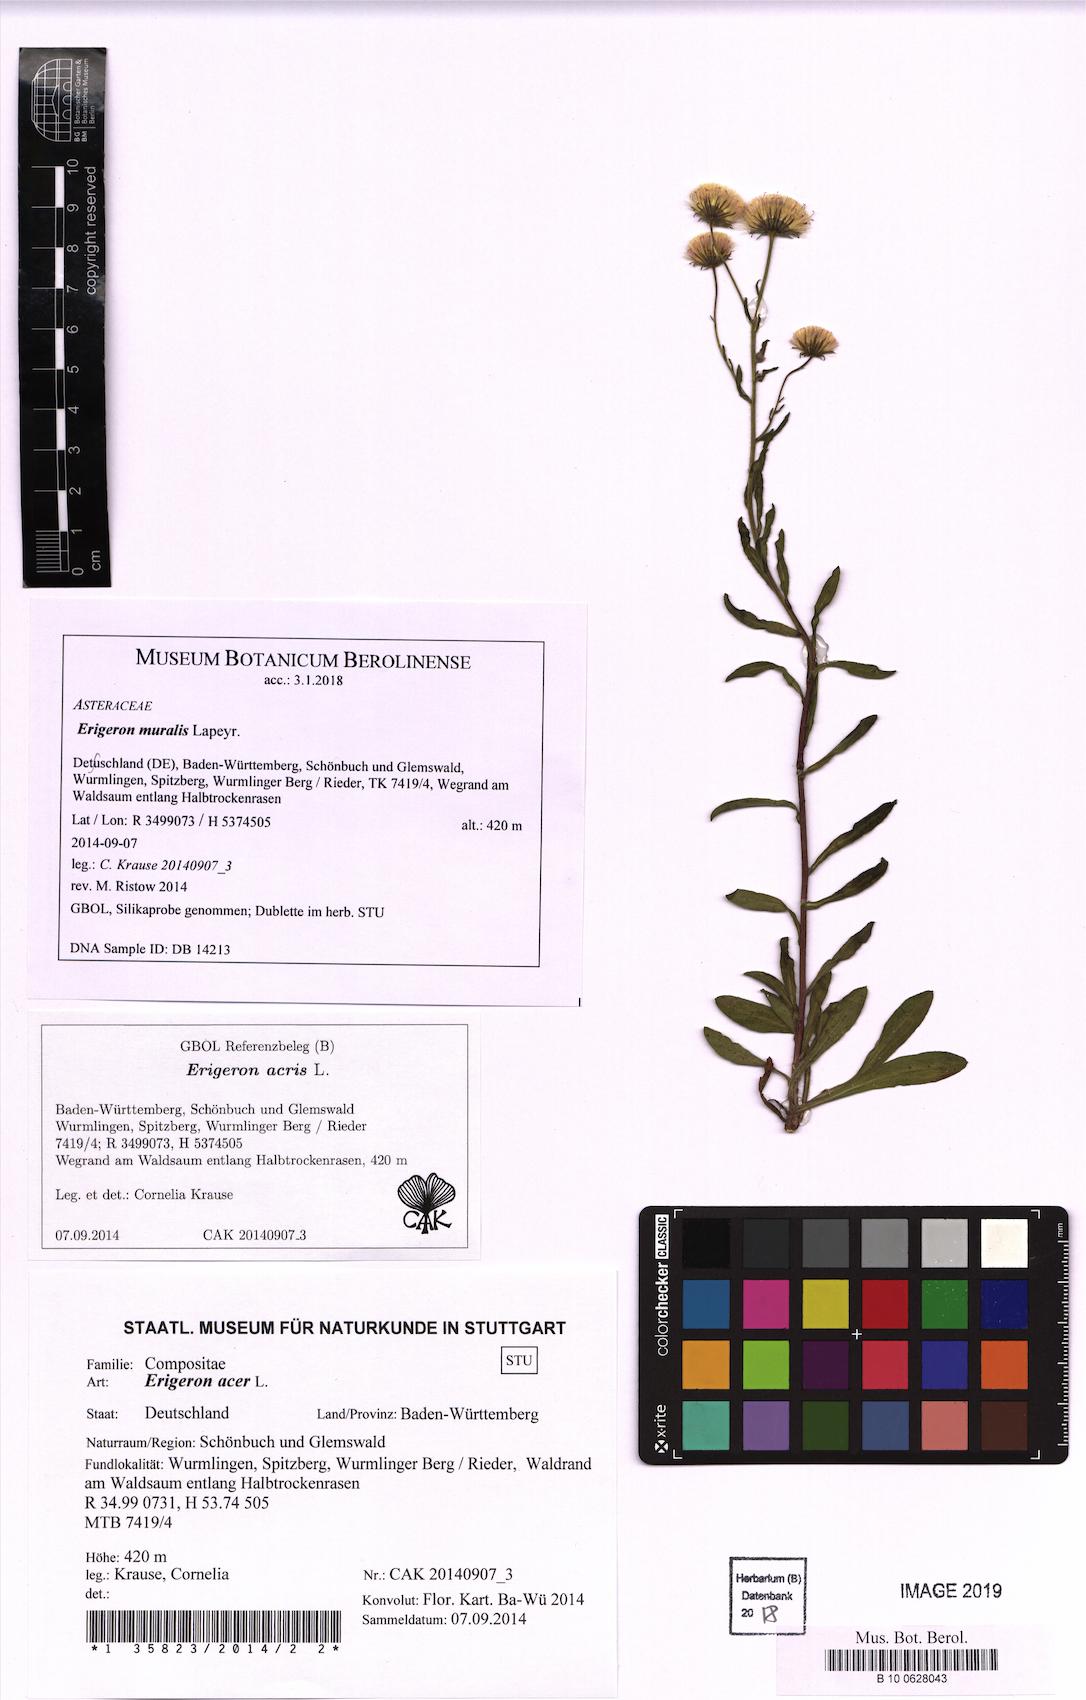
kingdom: Plantae
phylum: Tracheophyta
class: Magnoliopsida
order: Asterales
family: Asteraceae
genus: Erigeron
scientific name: Erigeron muralis
